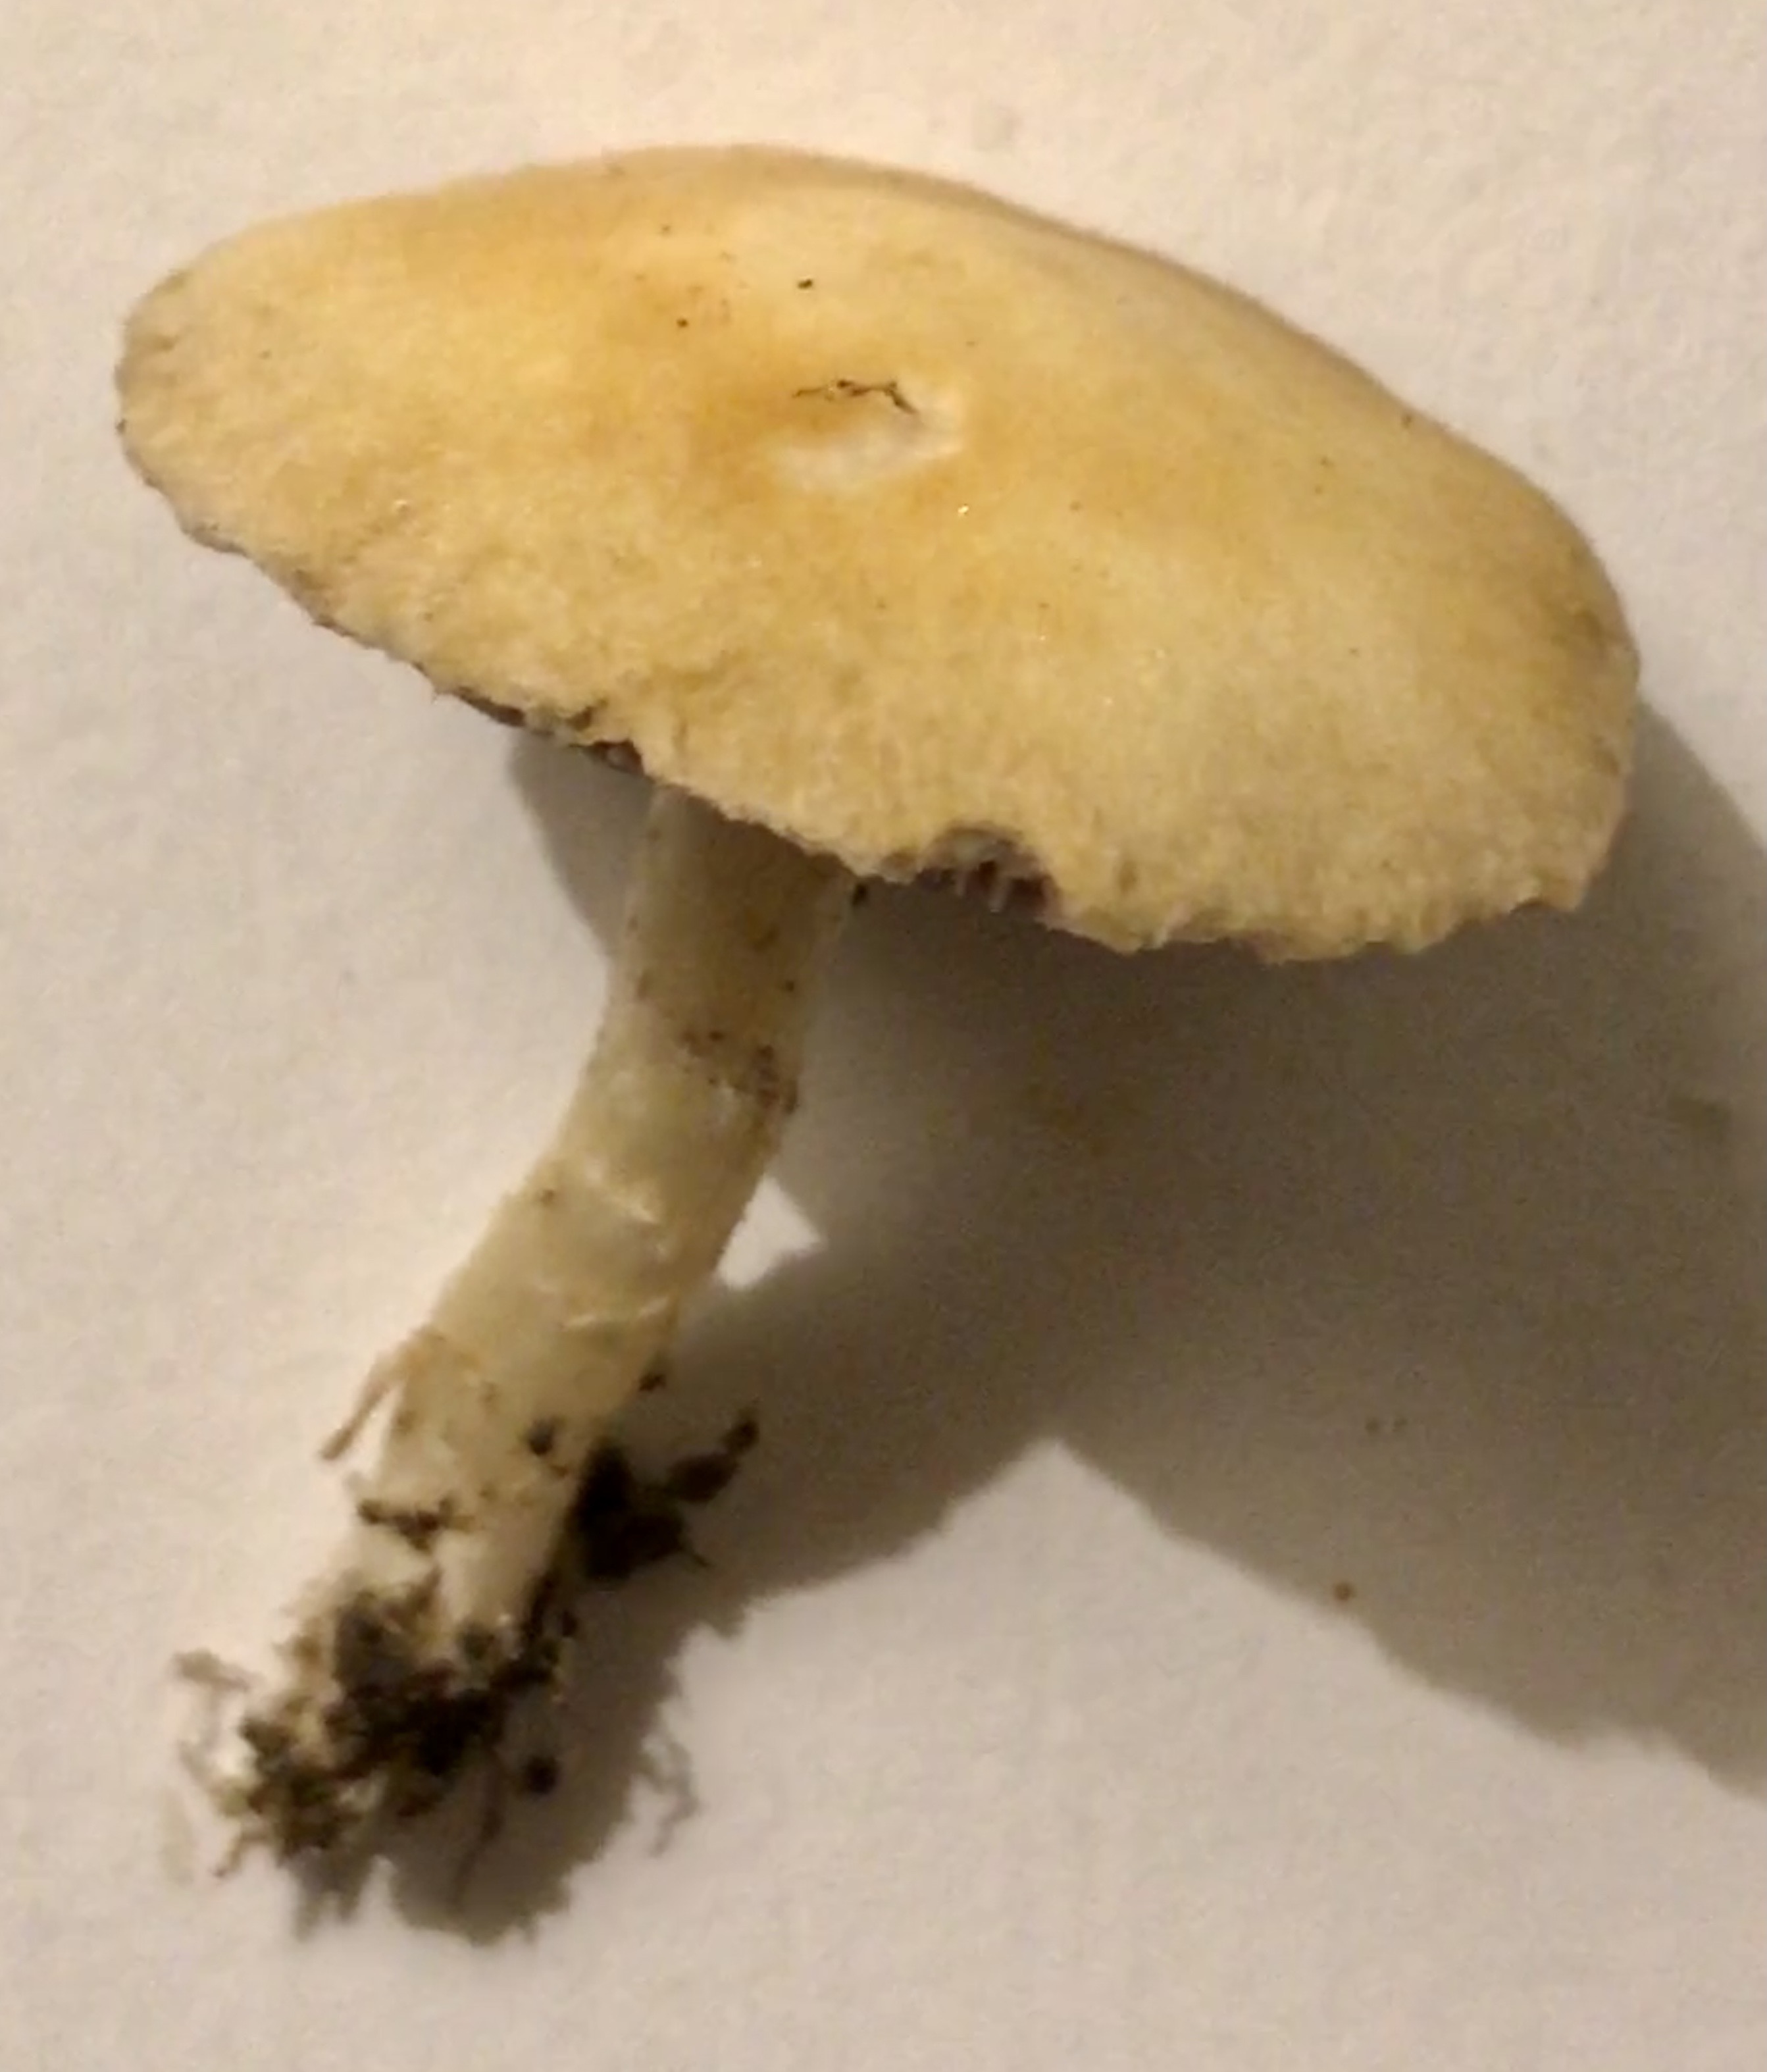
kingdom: Fungi
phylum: Basidiomycota
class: Agaricomycetes
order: Agaricales
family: Hymenogastraceae
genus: Psilocybe
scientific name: Psilocybe coronilla
